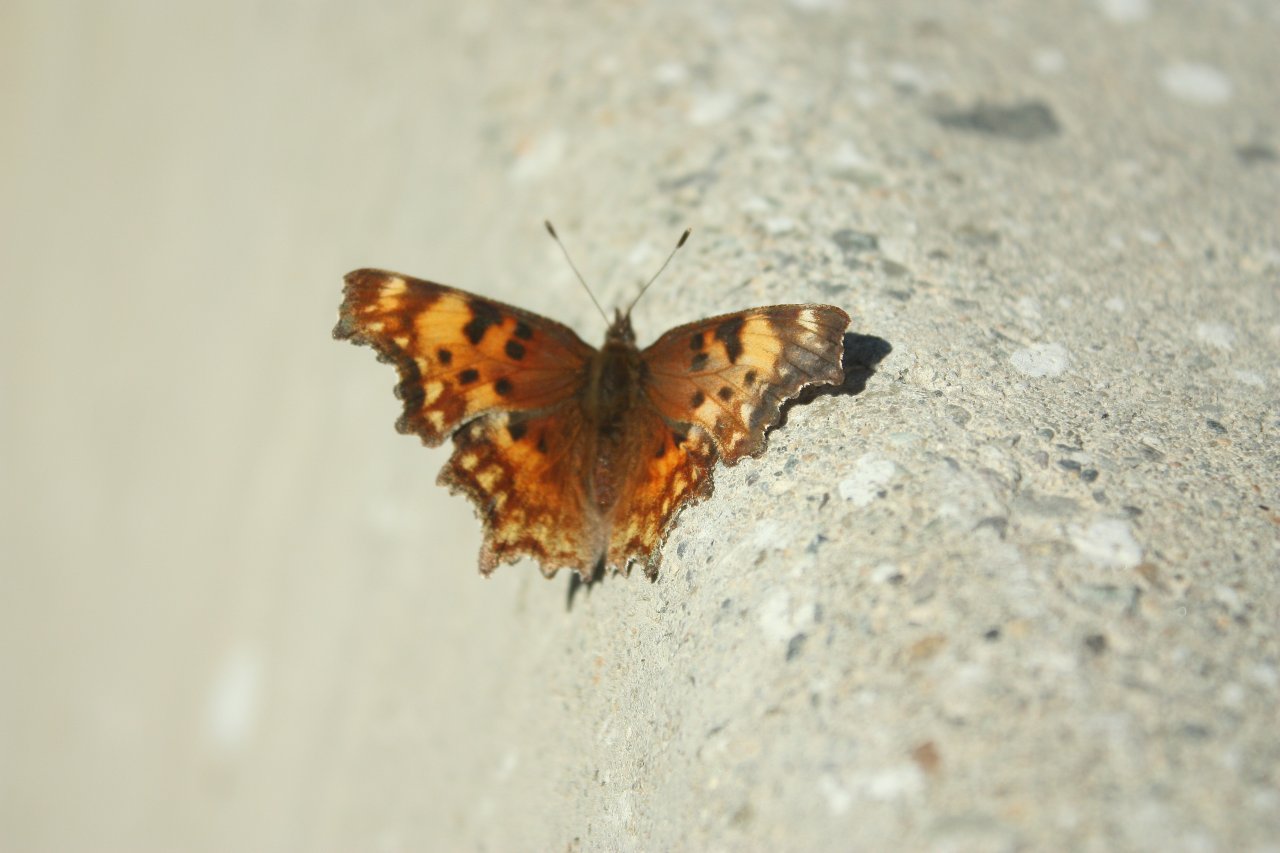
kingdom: Animalia
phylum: Arthropoda
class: Insecta
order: Lepidoptera
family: Nymphalidae
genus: Polygonia
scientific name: Polygonia faunus
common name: Green Comma
